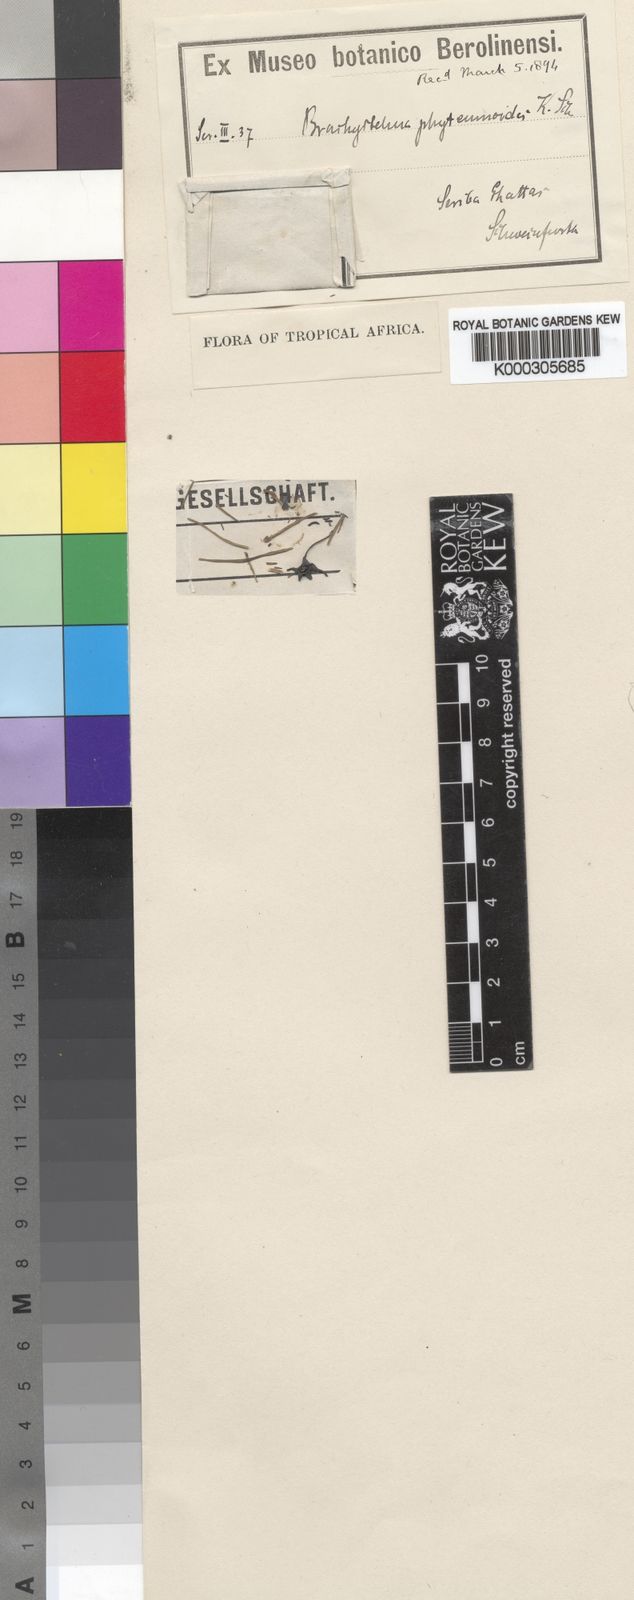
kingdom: Plantae
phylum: Tracheophyta
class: Magnoliopsida
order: Gentianales
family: Apocynaceae
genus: Ceropegia
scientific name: Ceropegia elliptica
